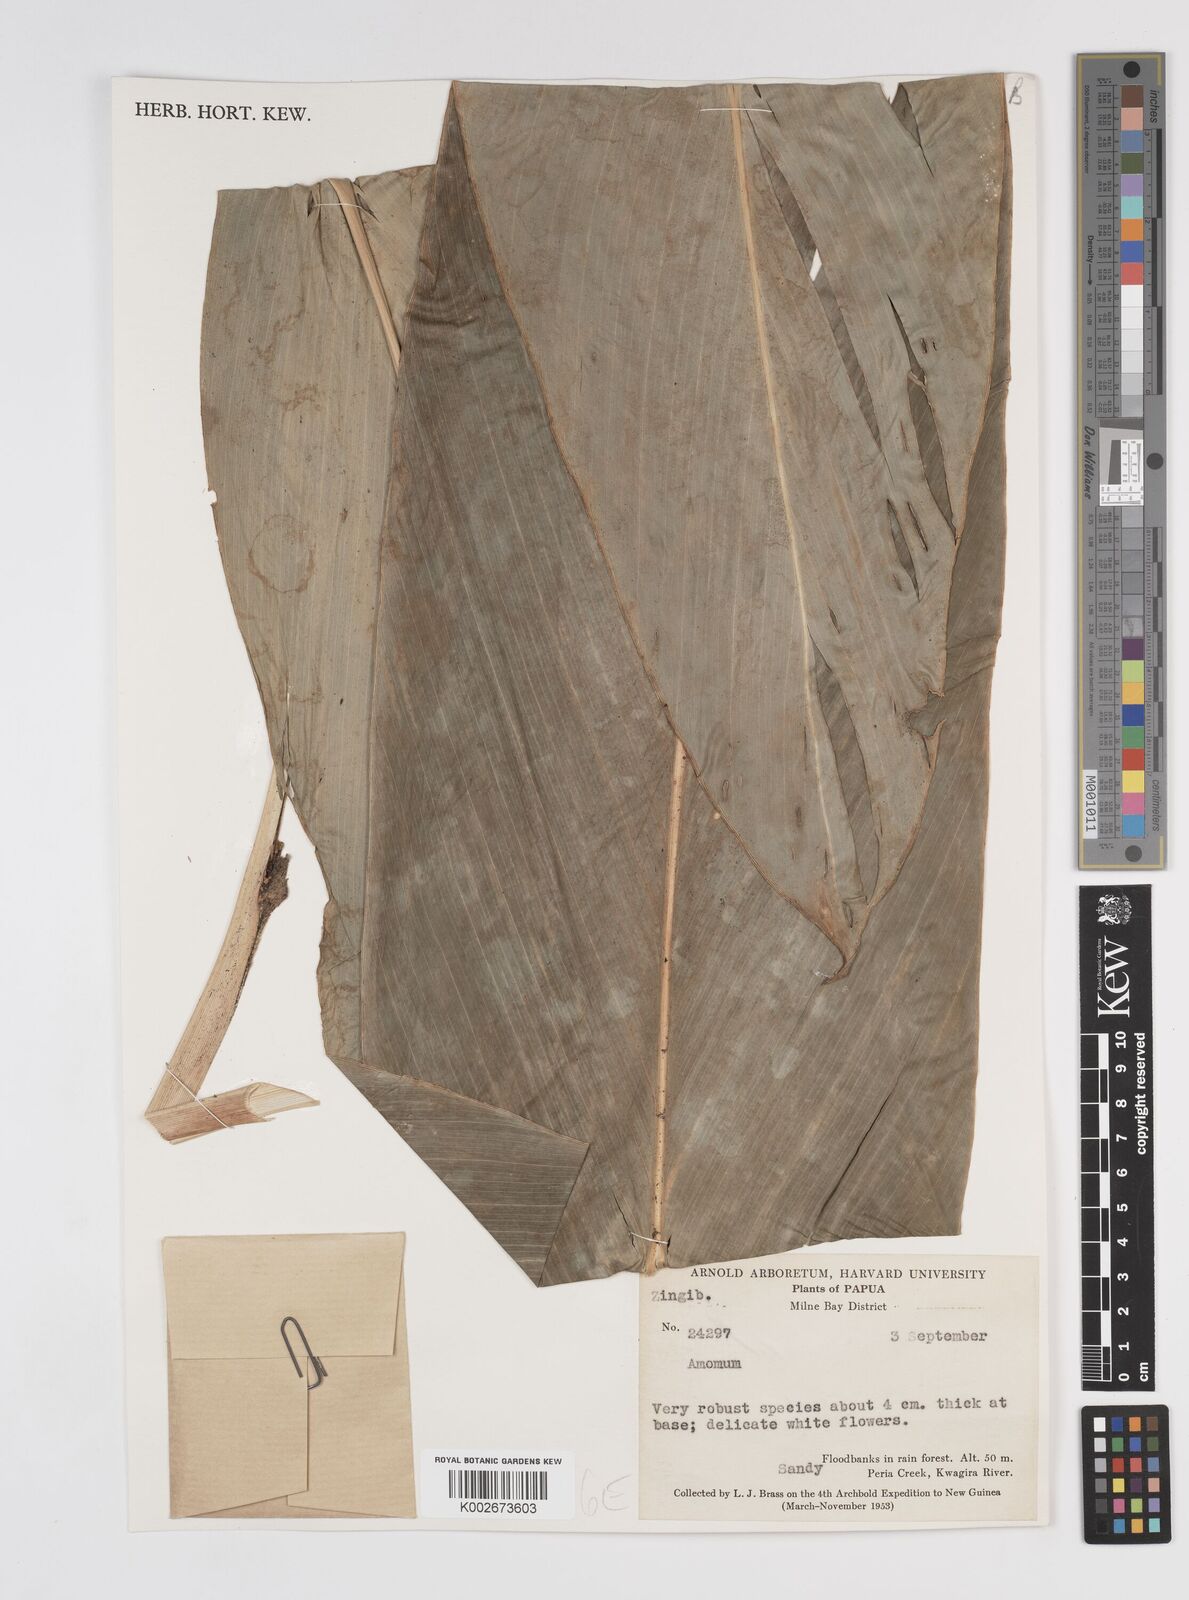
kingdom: Plantae
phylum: Tracheophyta
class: Liliopsida
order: Zingiberales
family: Zingiberaceae
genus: Amomum
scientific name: Amomum
